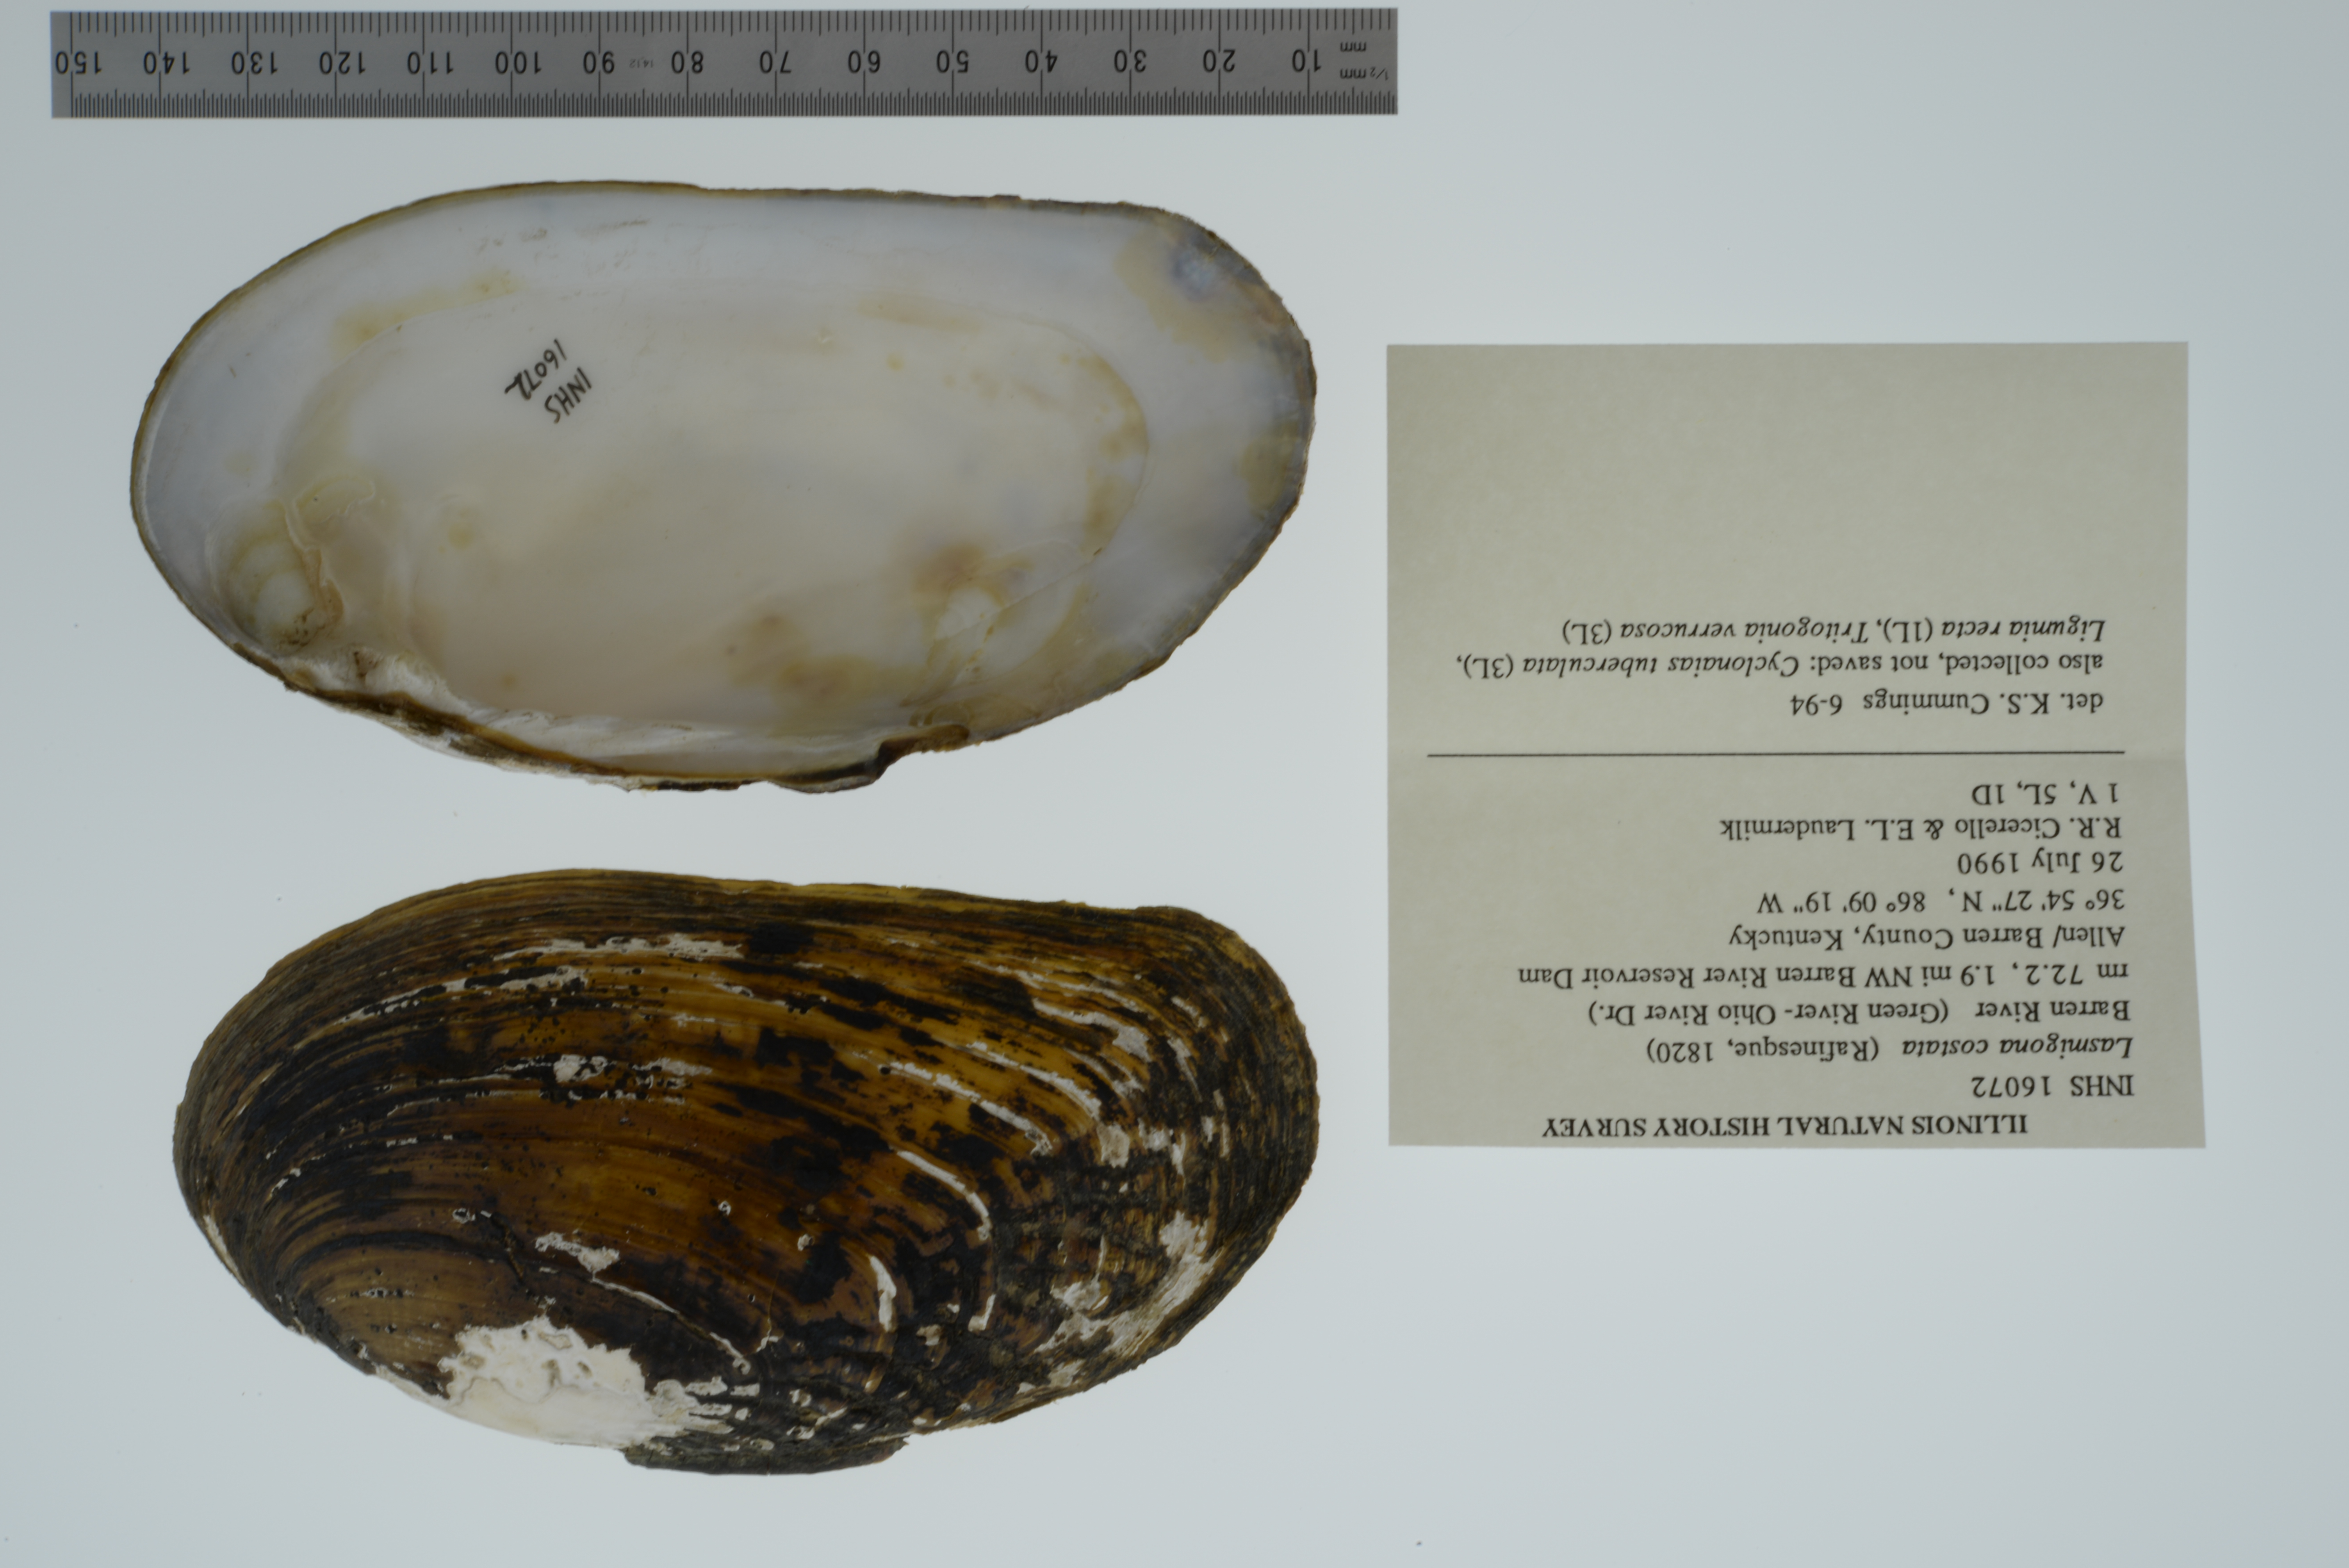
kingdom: Animalia
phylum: Mollusca
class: Bivalvia
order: Unionida
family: Unionidae
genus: Lasmigona
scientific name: Lasmigona costata
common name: Flutedshell
